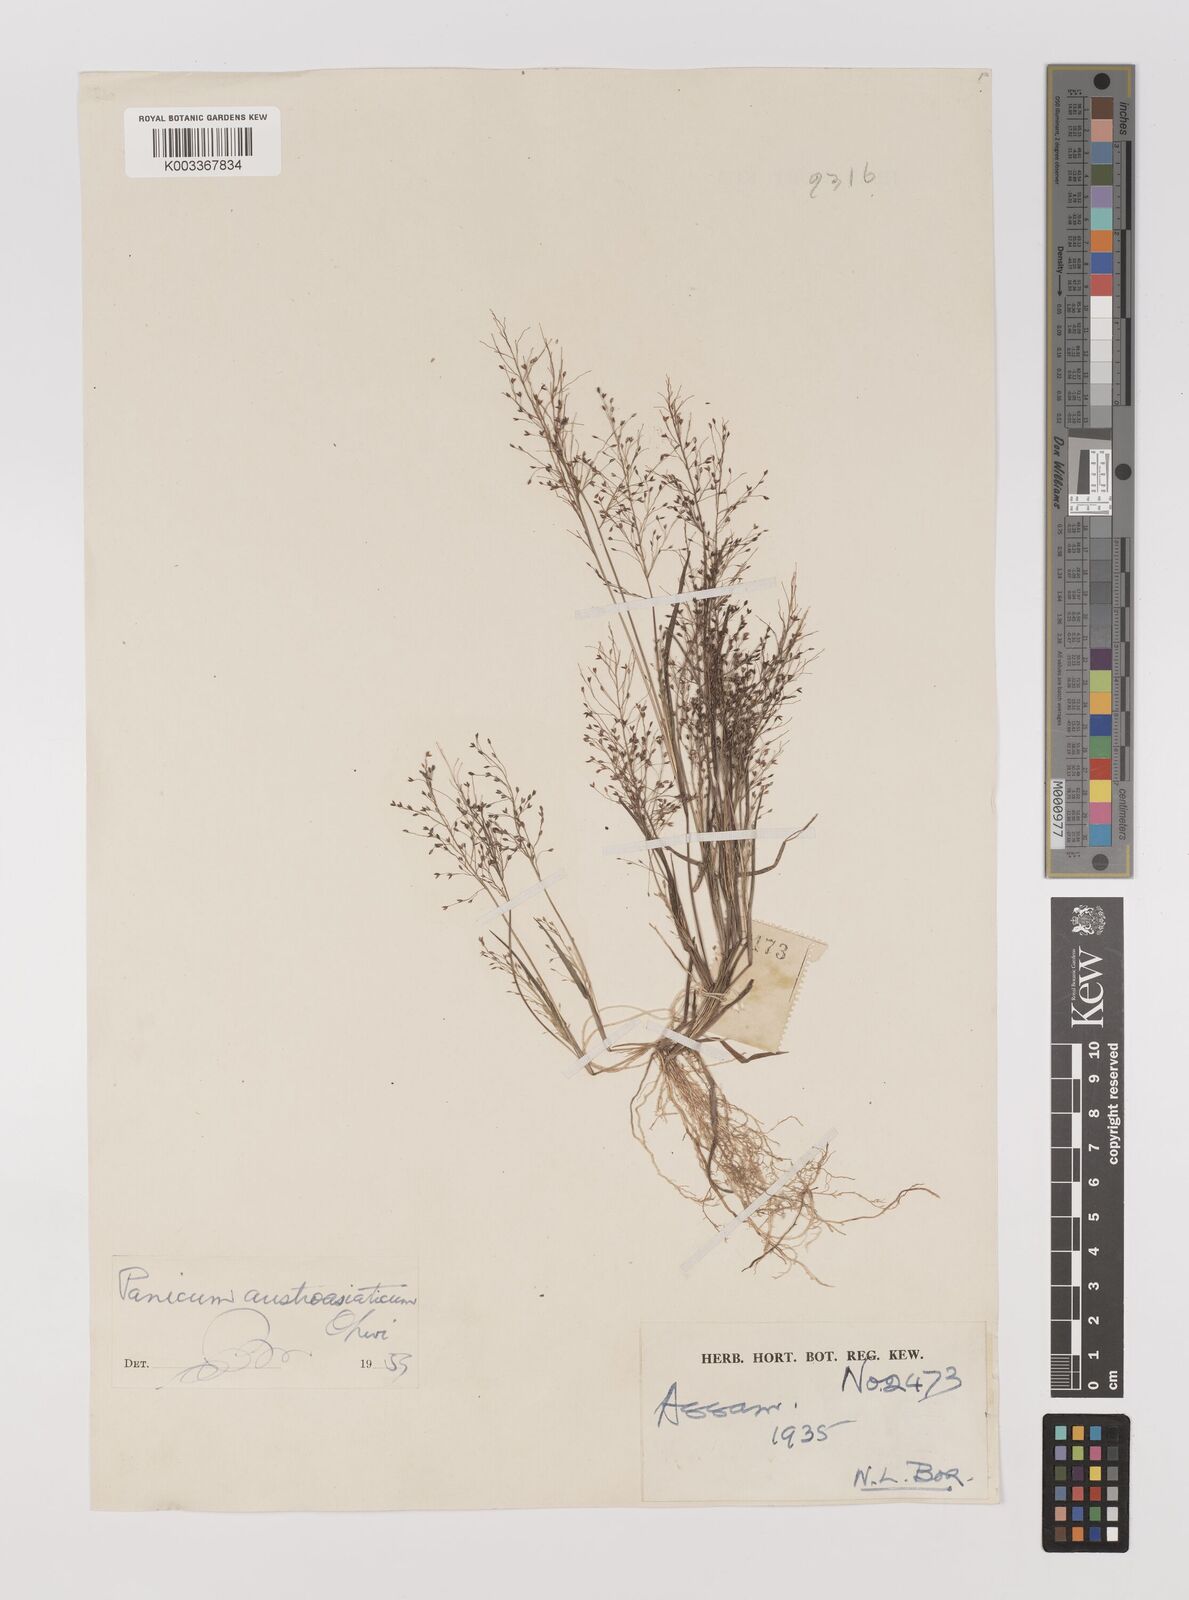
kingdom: Plantae
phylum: Tracheophyta
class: Liliopsida
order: Poales
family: Poaceae
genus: Panicum
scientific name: Panicum humile
